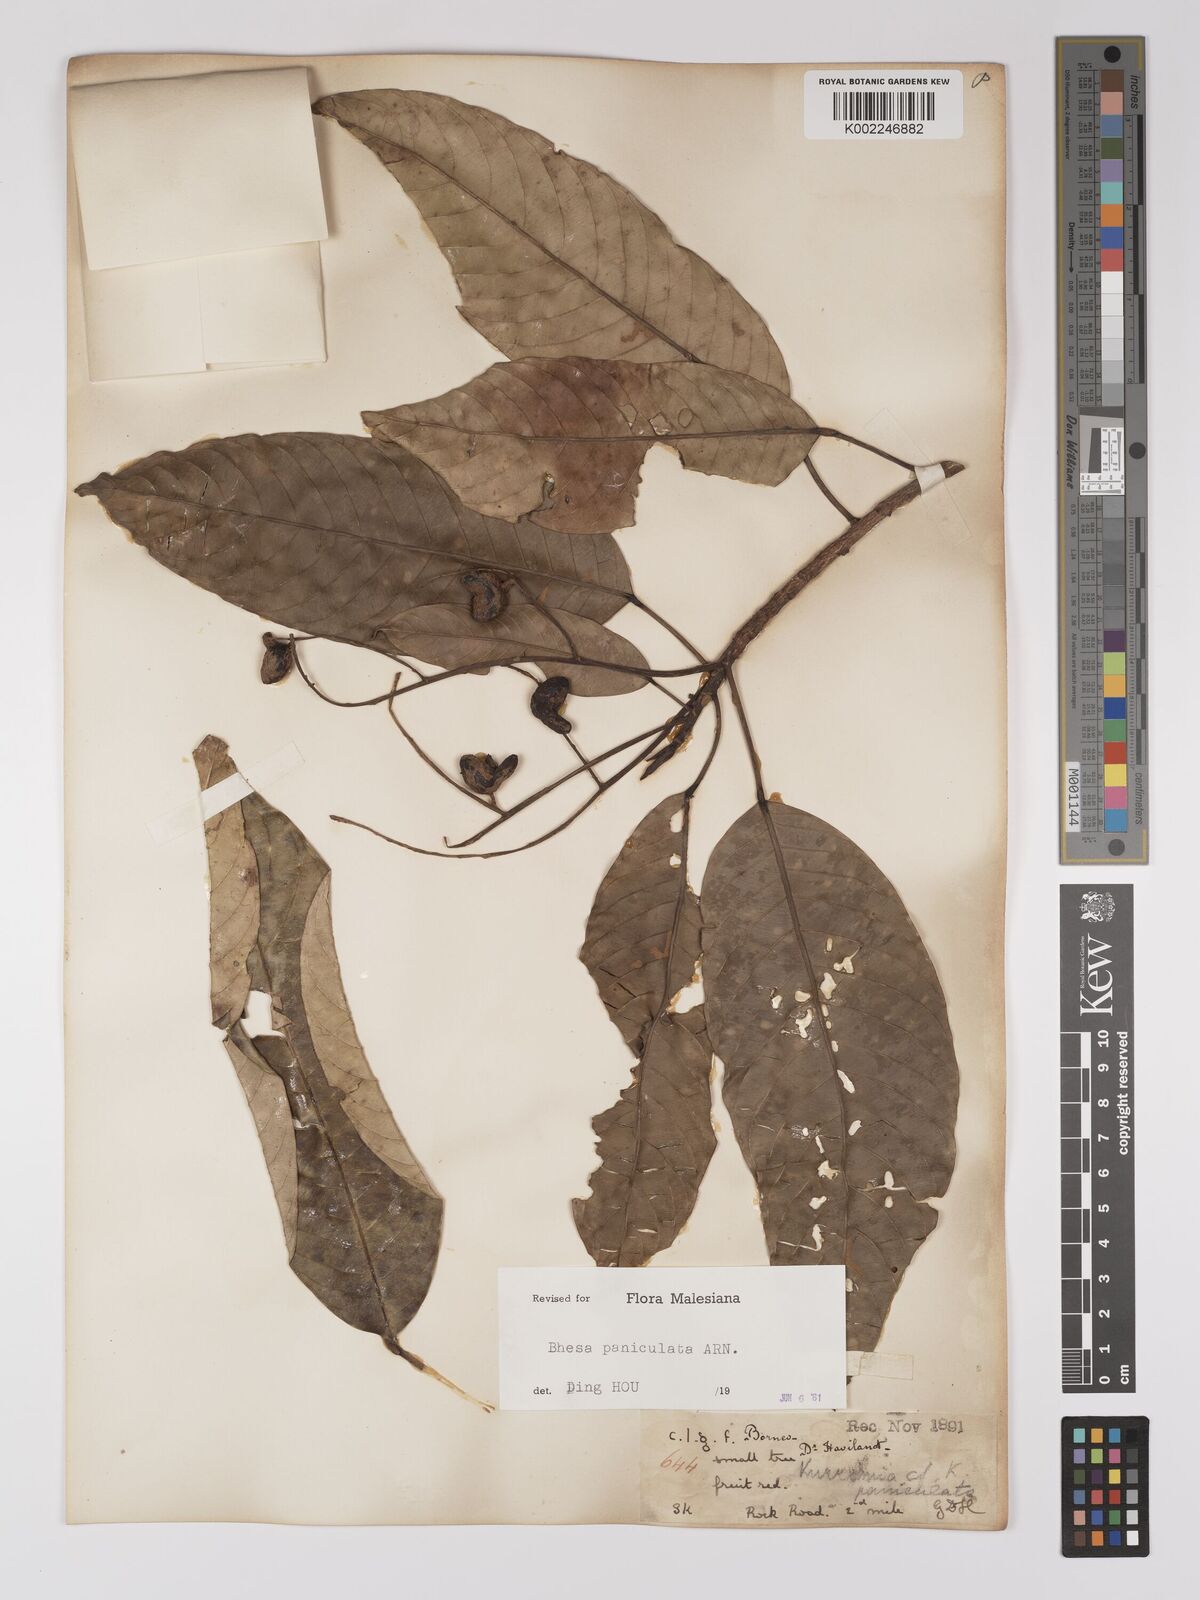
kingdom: Plantae
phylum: Tracheophyta
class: Magnoliopsida
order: Malpighiales
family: Centroplacaceae
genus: Bhesa
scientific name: Bhesa paniculata
